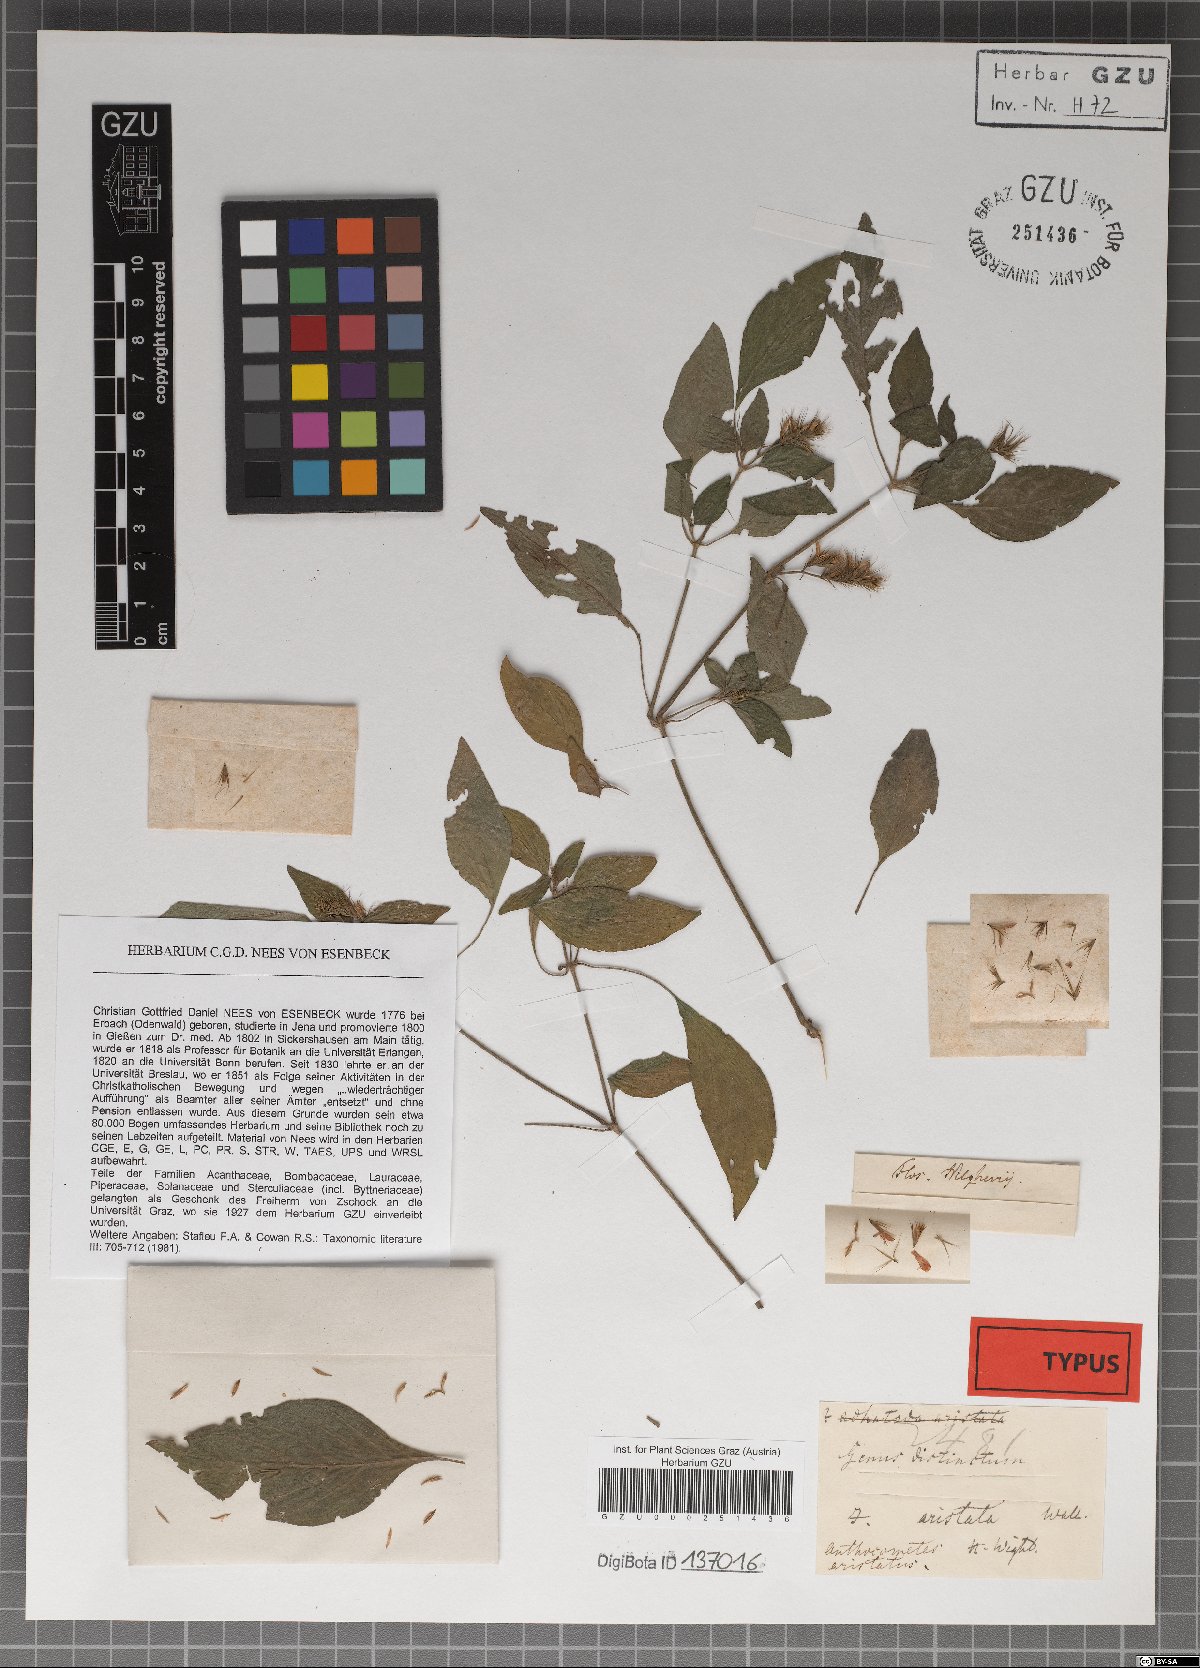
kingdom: Plantae
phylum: Tracheophyta
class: Magnoliopsida
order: Lamiales
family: Acanthaceae
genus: Monothecium
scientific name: Monothecium aristatum
